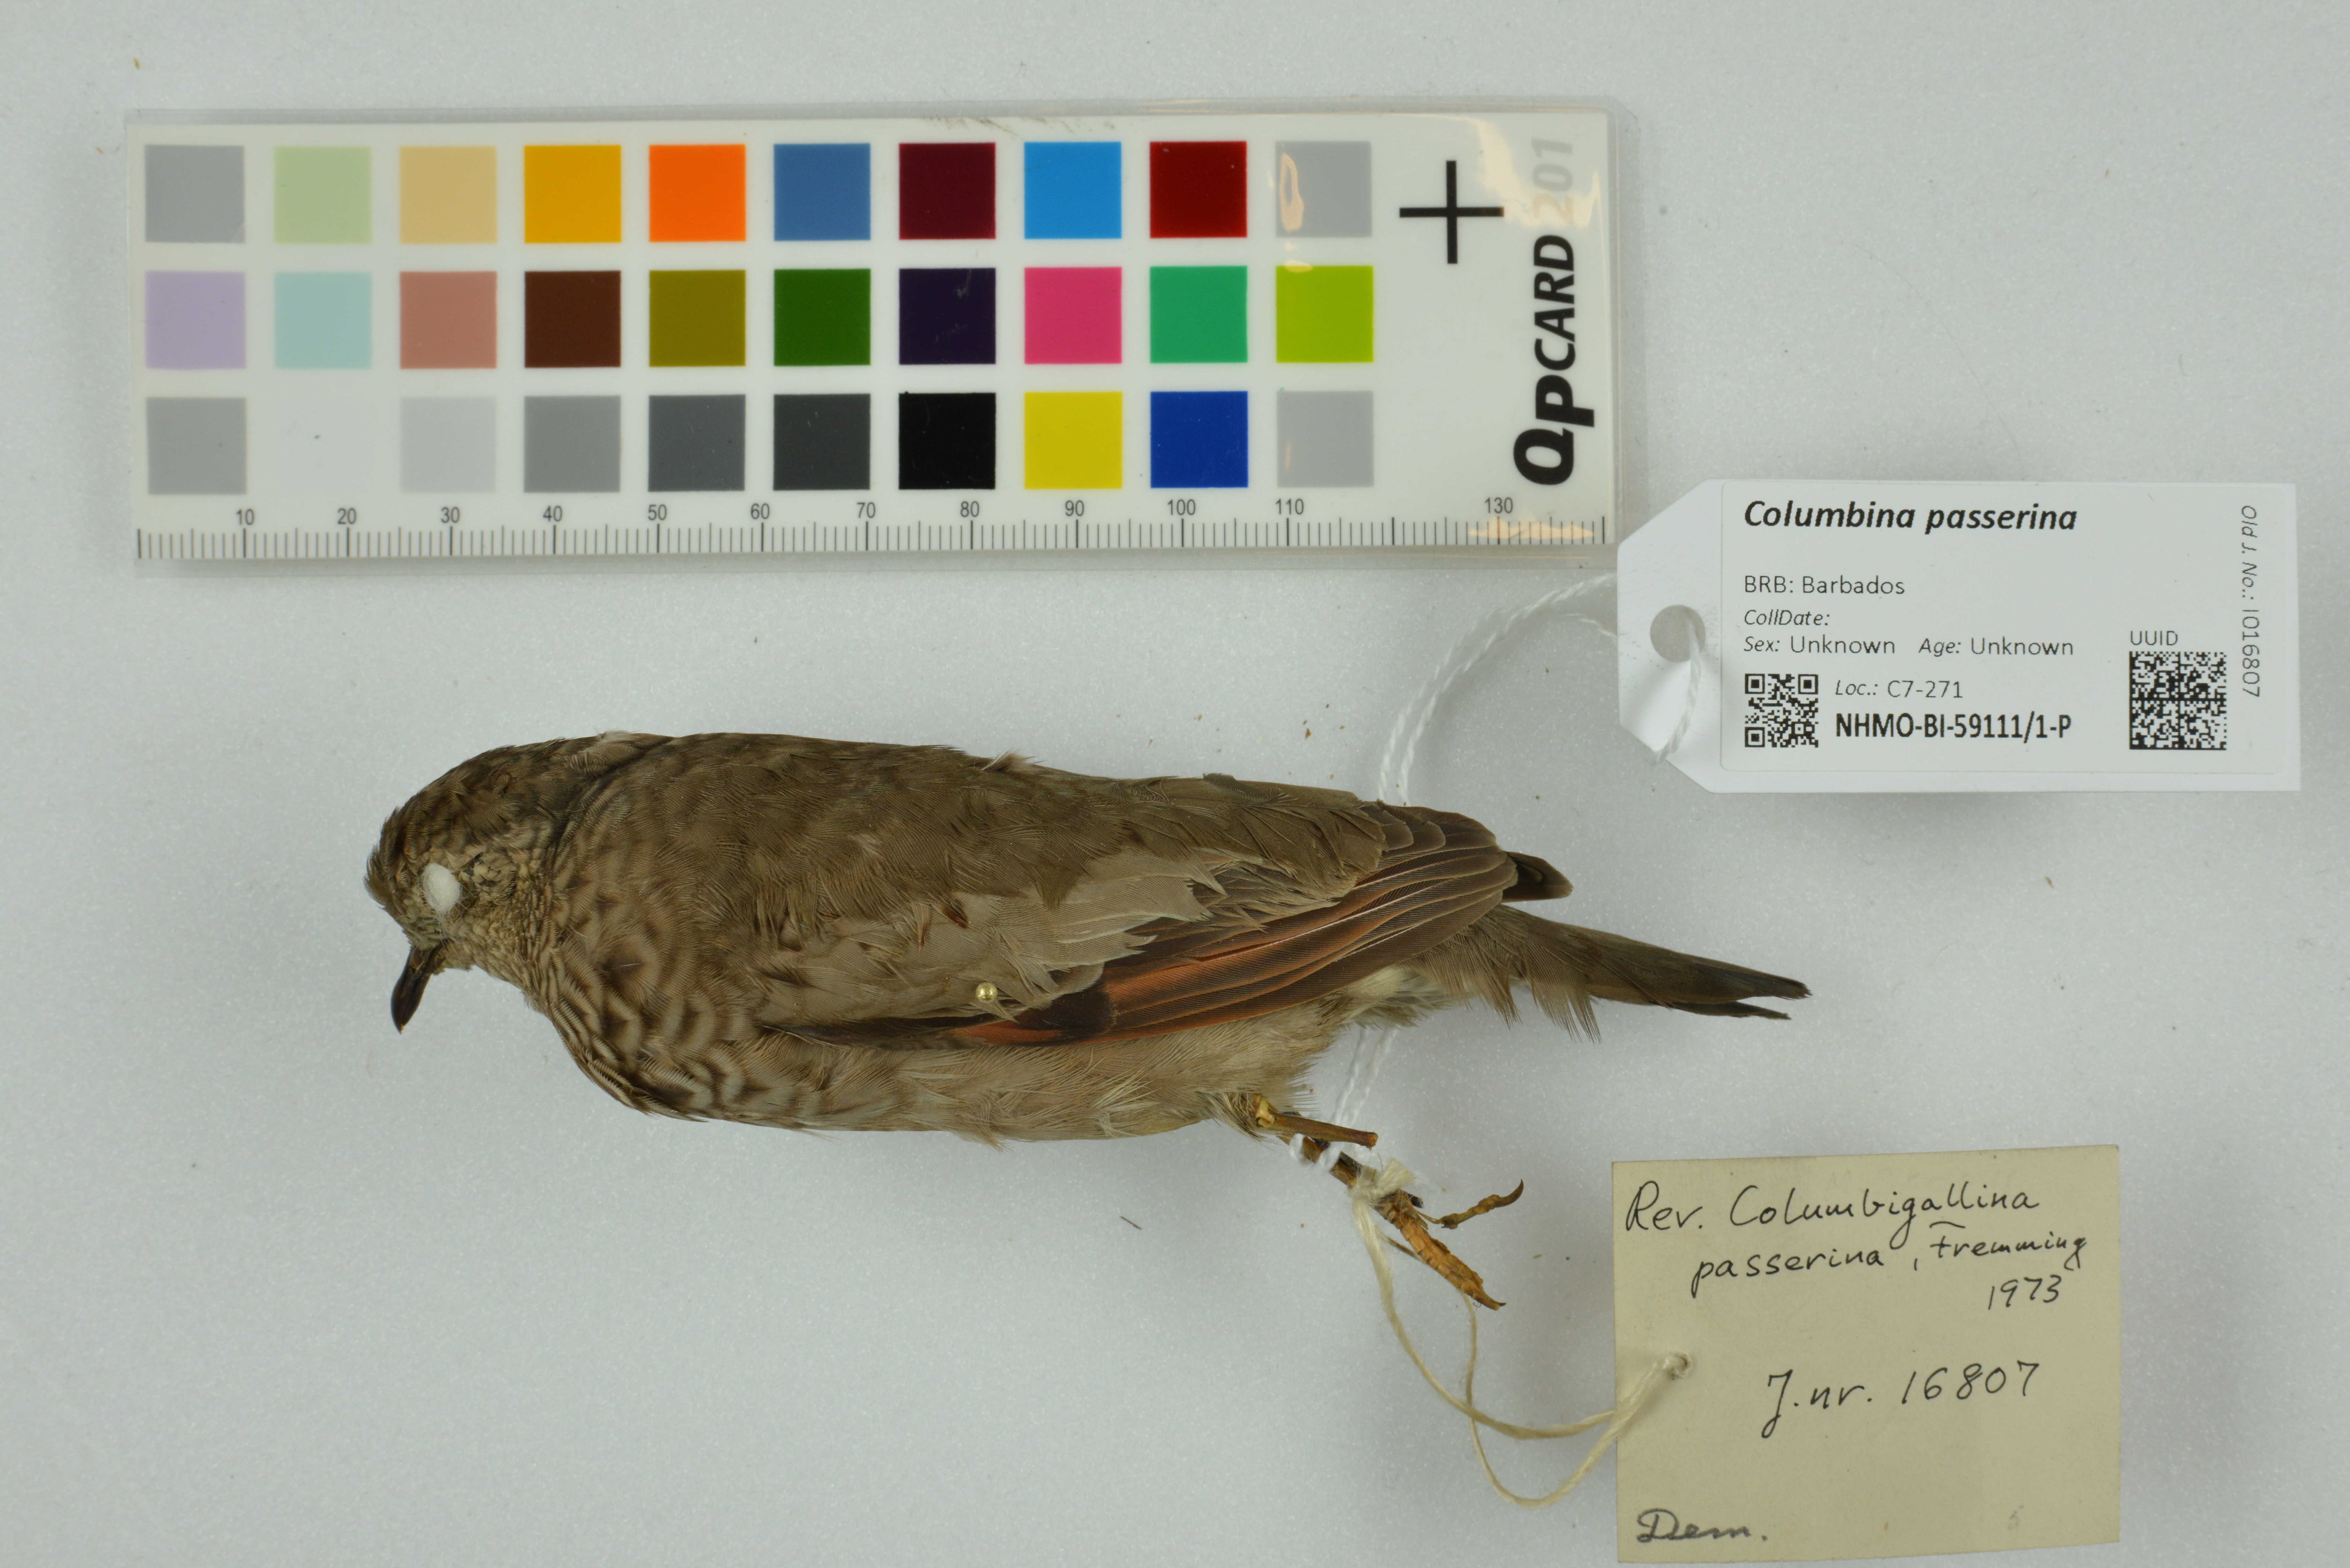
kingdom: Animalia
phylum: Chordata
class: Aves
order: Columbiformes
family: Columbidae
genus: Columbina
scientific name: Columbina passerina
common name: Common ground-dove
